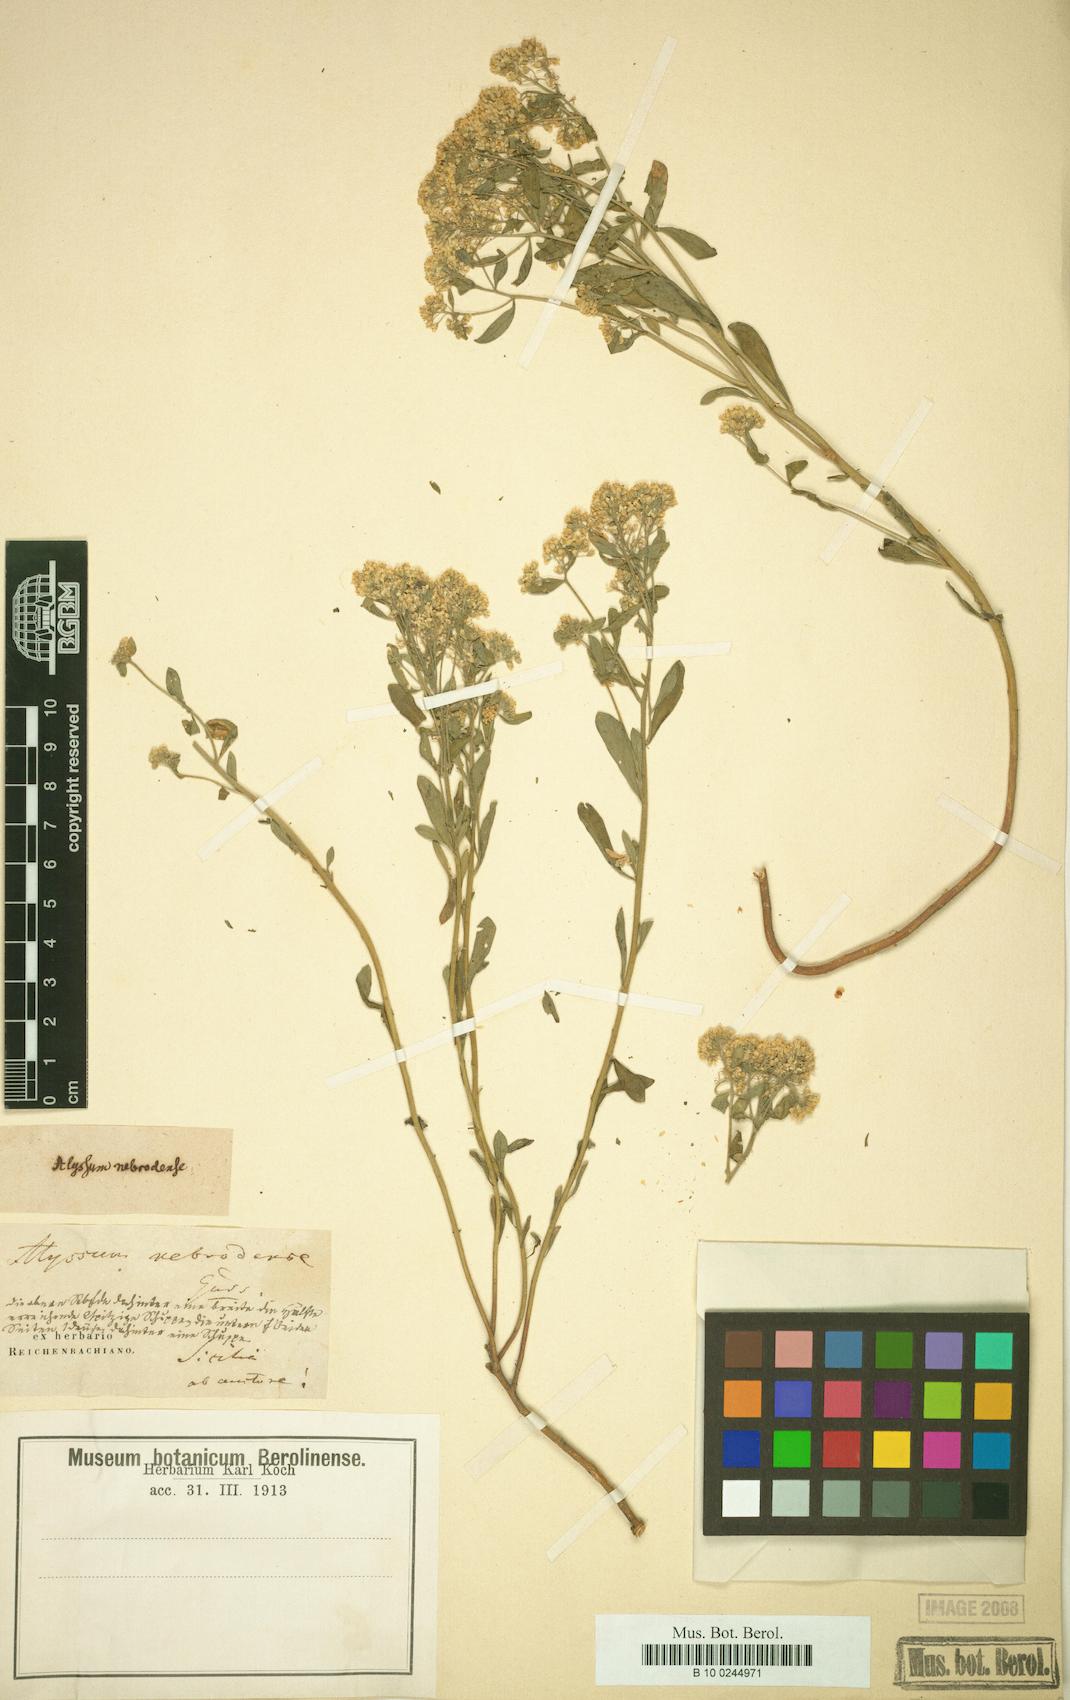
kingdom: Plantae
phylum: Tracheophyta
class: Magnoliopsida
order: Brassicales
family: Brassicaceae
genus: Odontarrhena
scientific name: Odontarrhena nebrodensis
